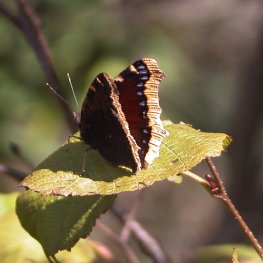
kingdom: Animalia
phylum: Arthropoda
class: Insecta
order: Lepidoptera
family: Nymphalidae
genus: Nymphalis
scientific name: Nymphalis antiopa
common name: Mourning Cloak
